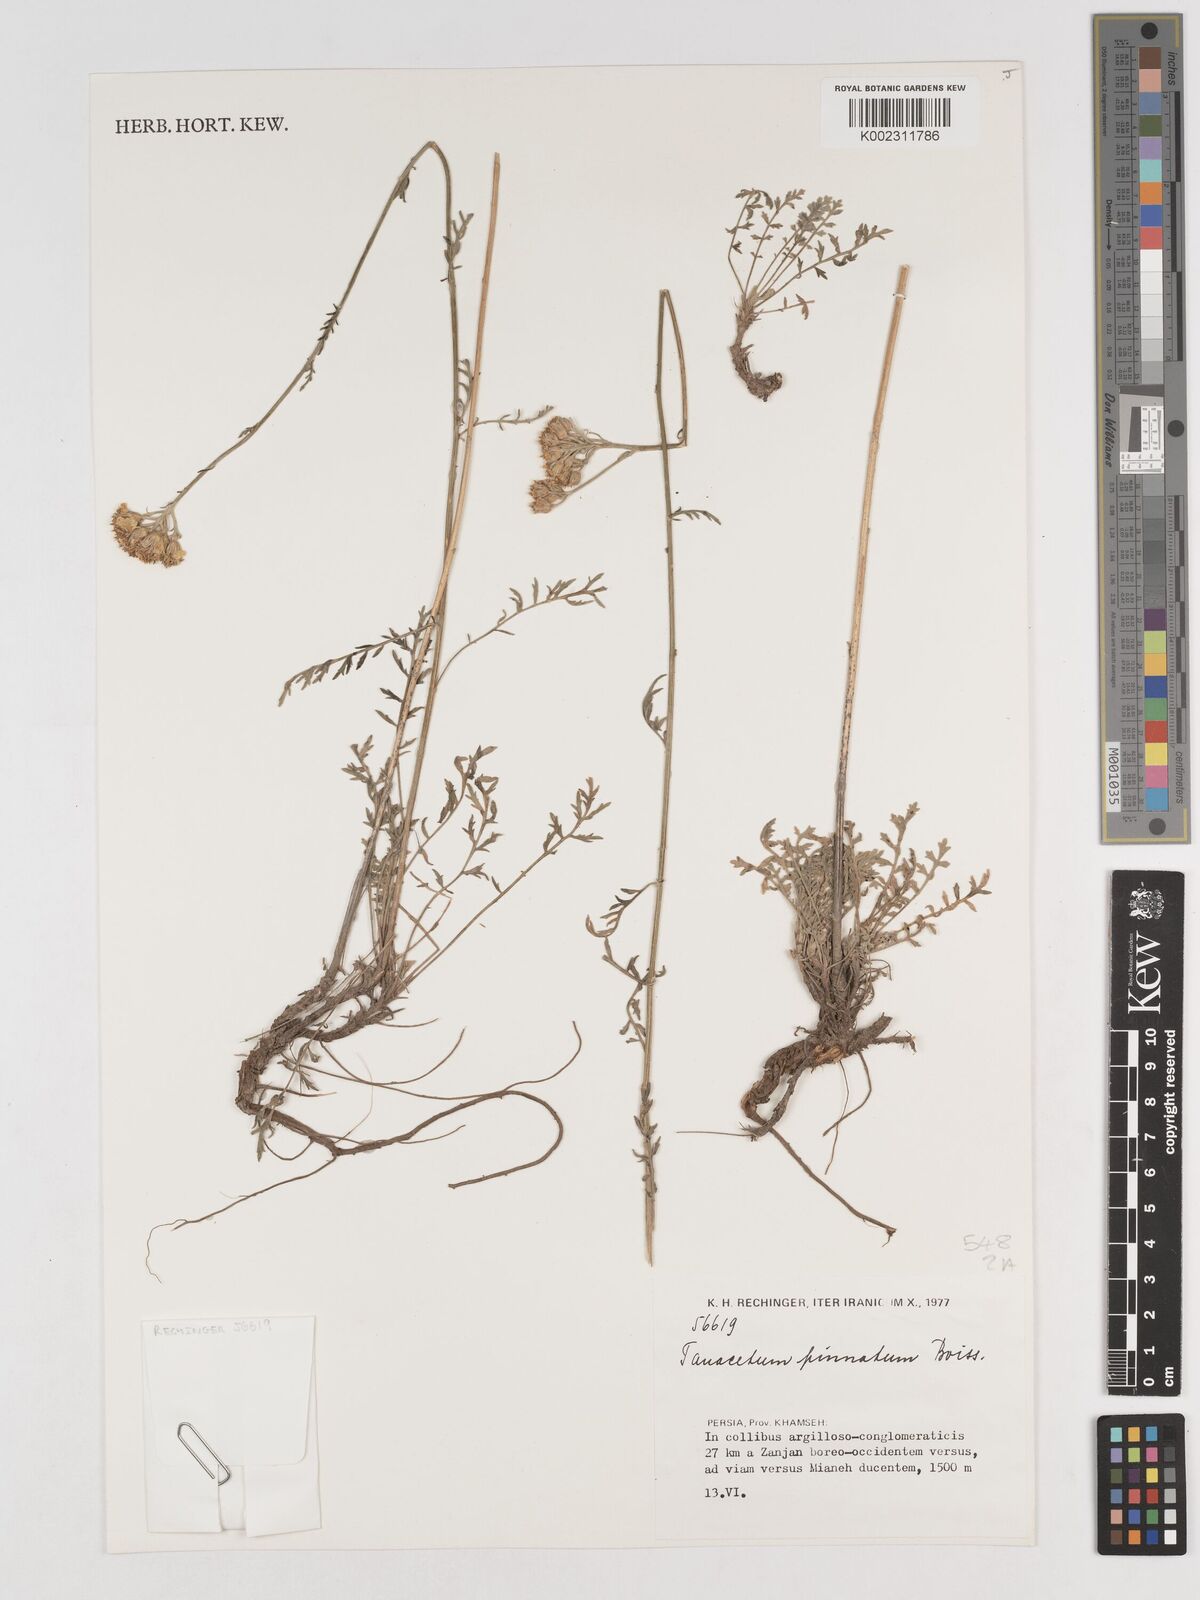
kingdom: Plantae
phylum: Tracheophyta
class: Magnoliopsida
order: Asterales
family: Asteraceae
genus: Tanacetum
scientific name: Tanacetum pinnatum
